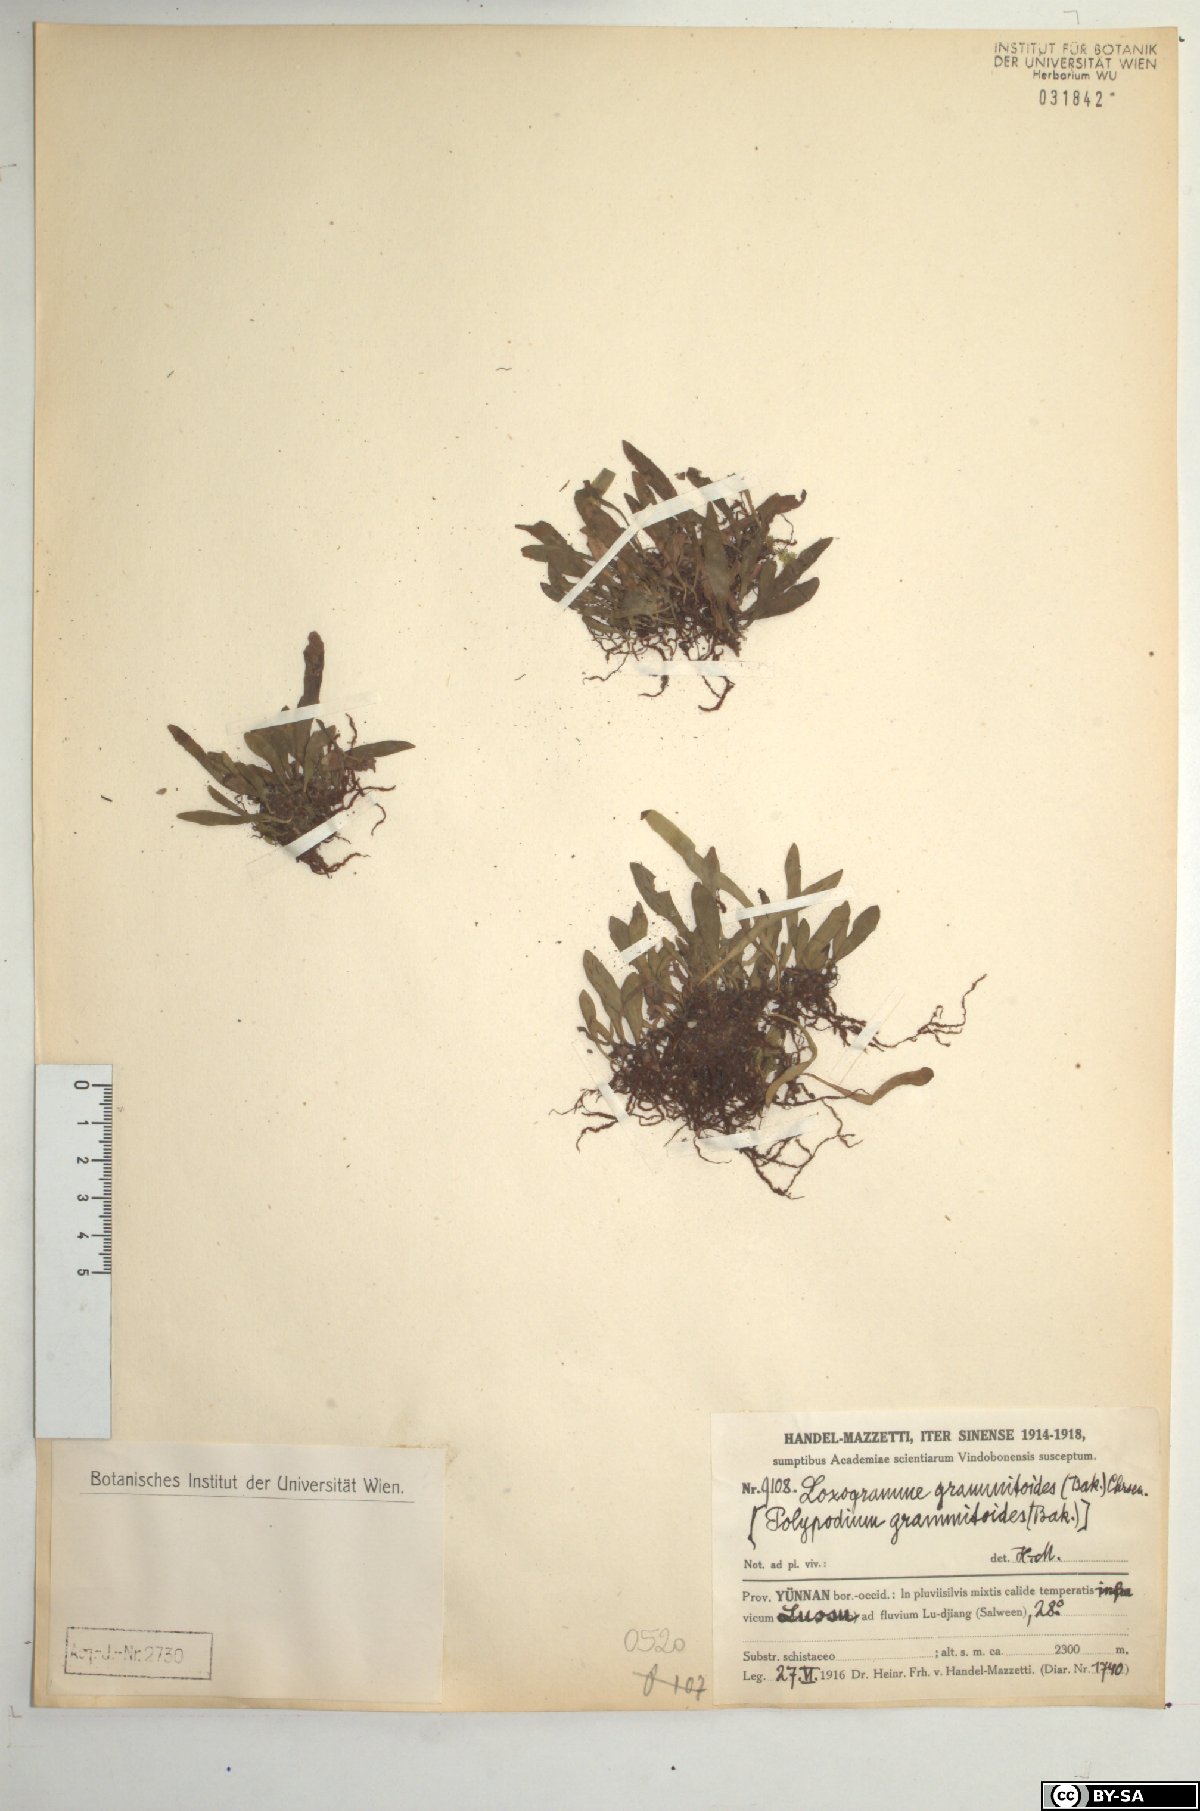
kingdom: Plantae
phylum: Tracheophyta
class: Polypodiopsida
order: Polypodiales
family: Polypodiaceae
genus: Loxogramme
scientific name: Loxogramme grammitoides
